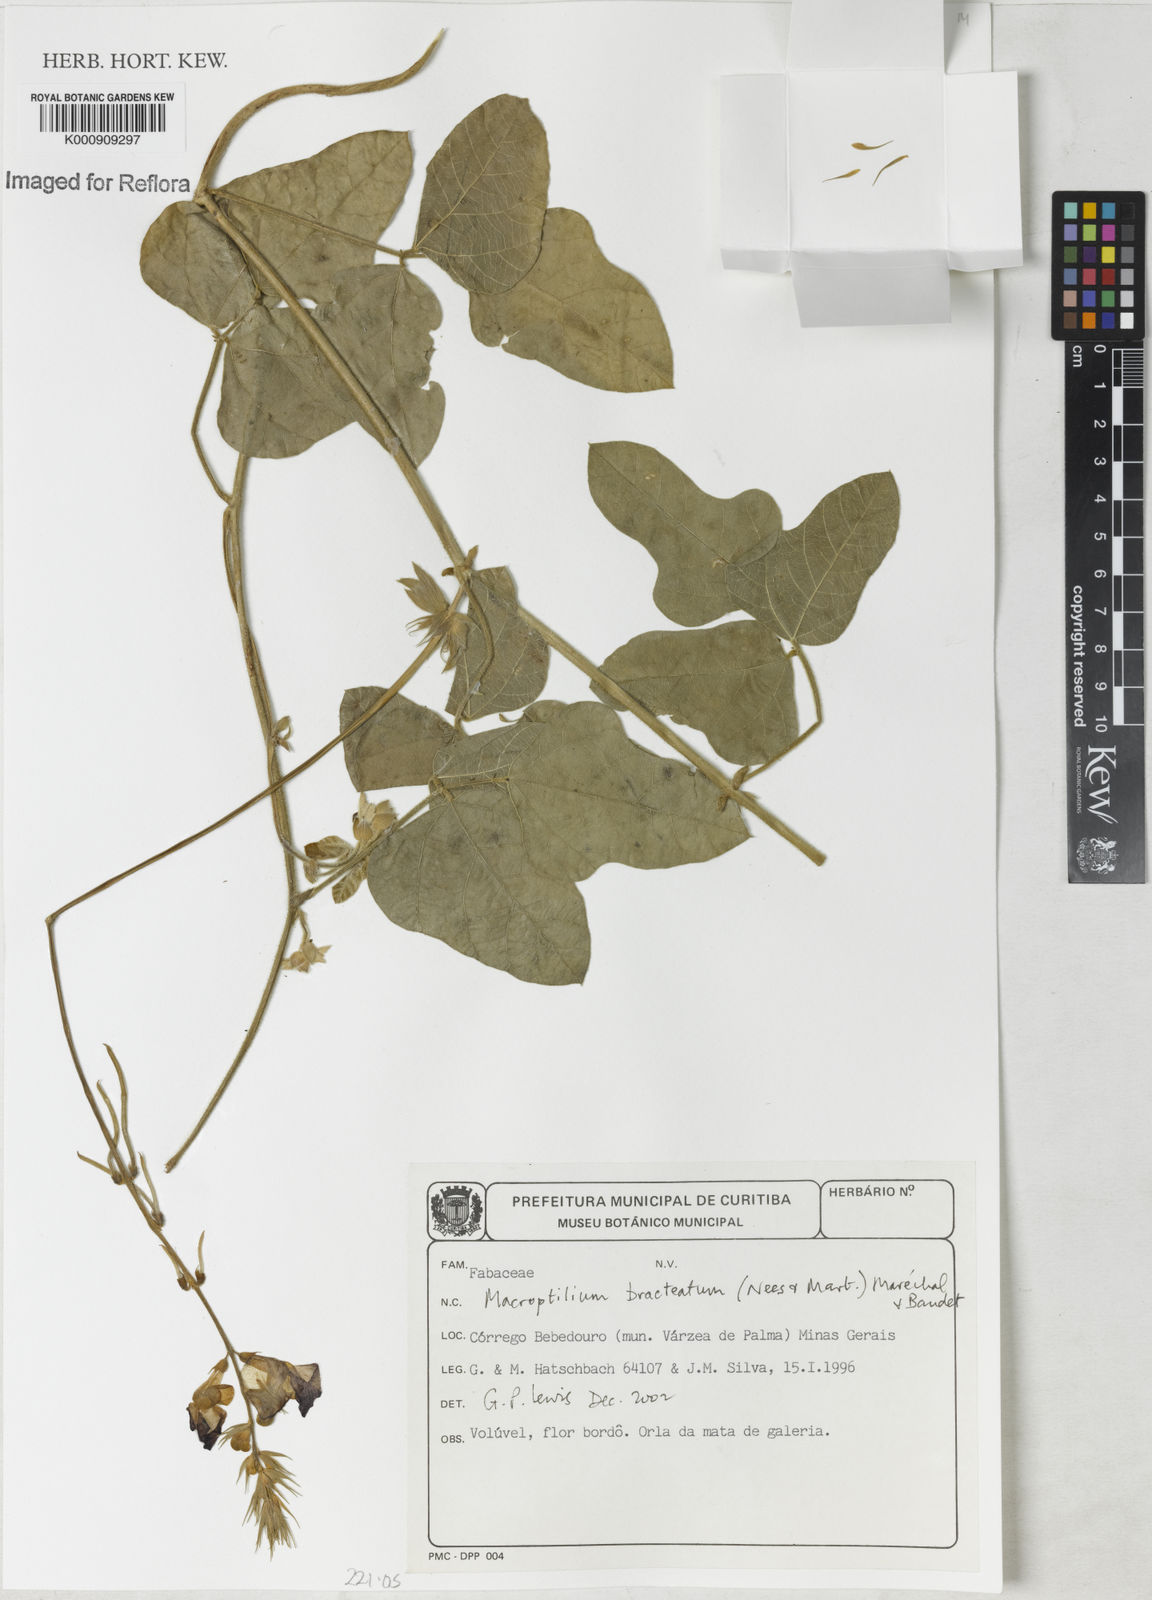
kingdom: Plantae
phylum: Tracheophyta
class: Magnoliopsida
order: Fabales
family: Fabaceae
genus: Macroptilium
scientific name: Macroptilium
